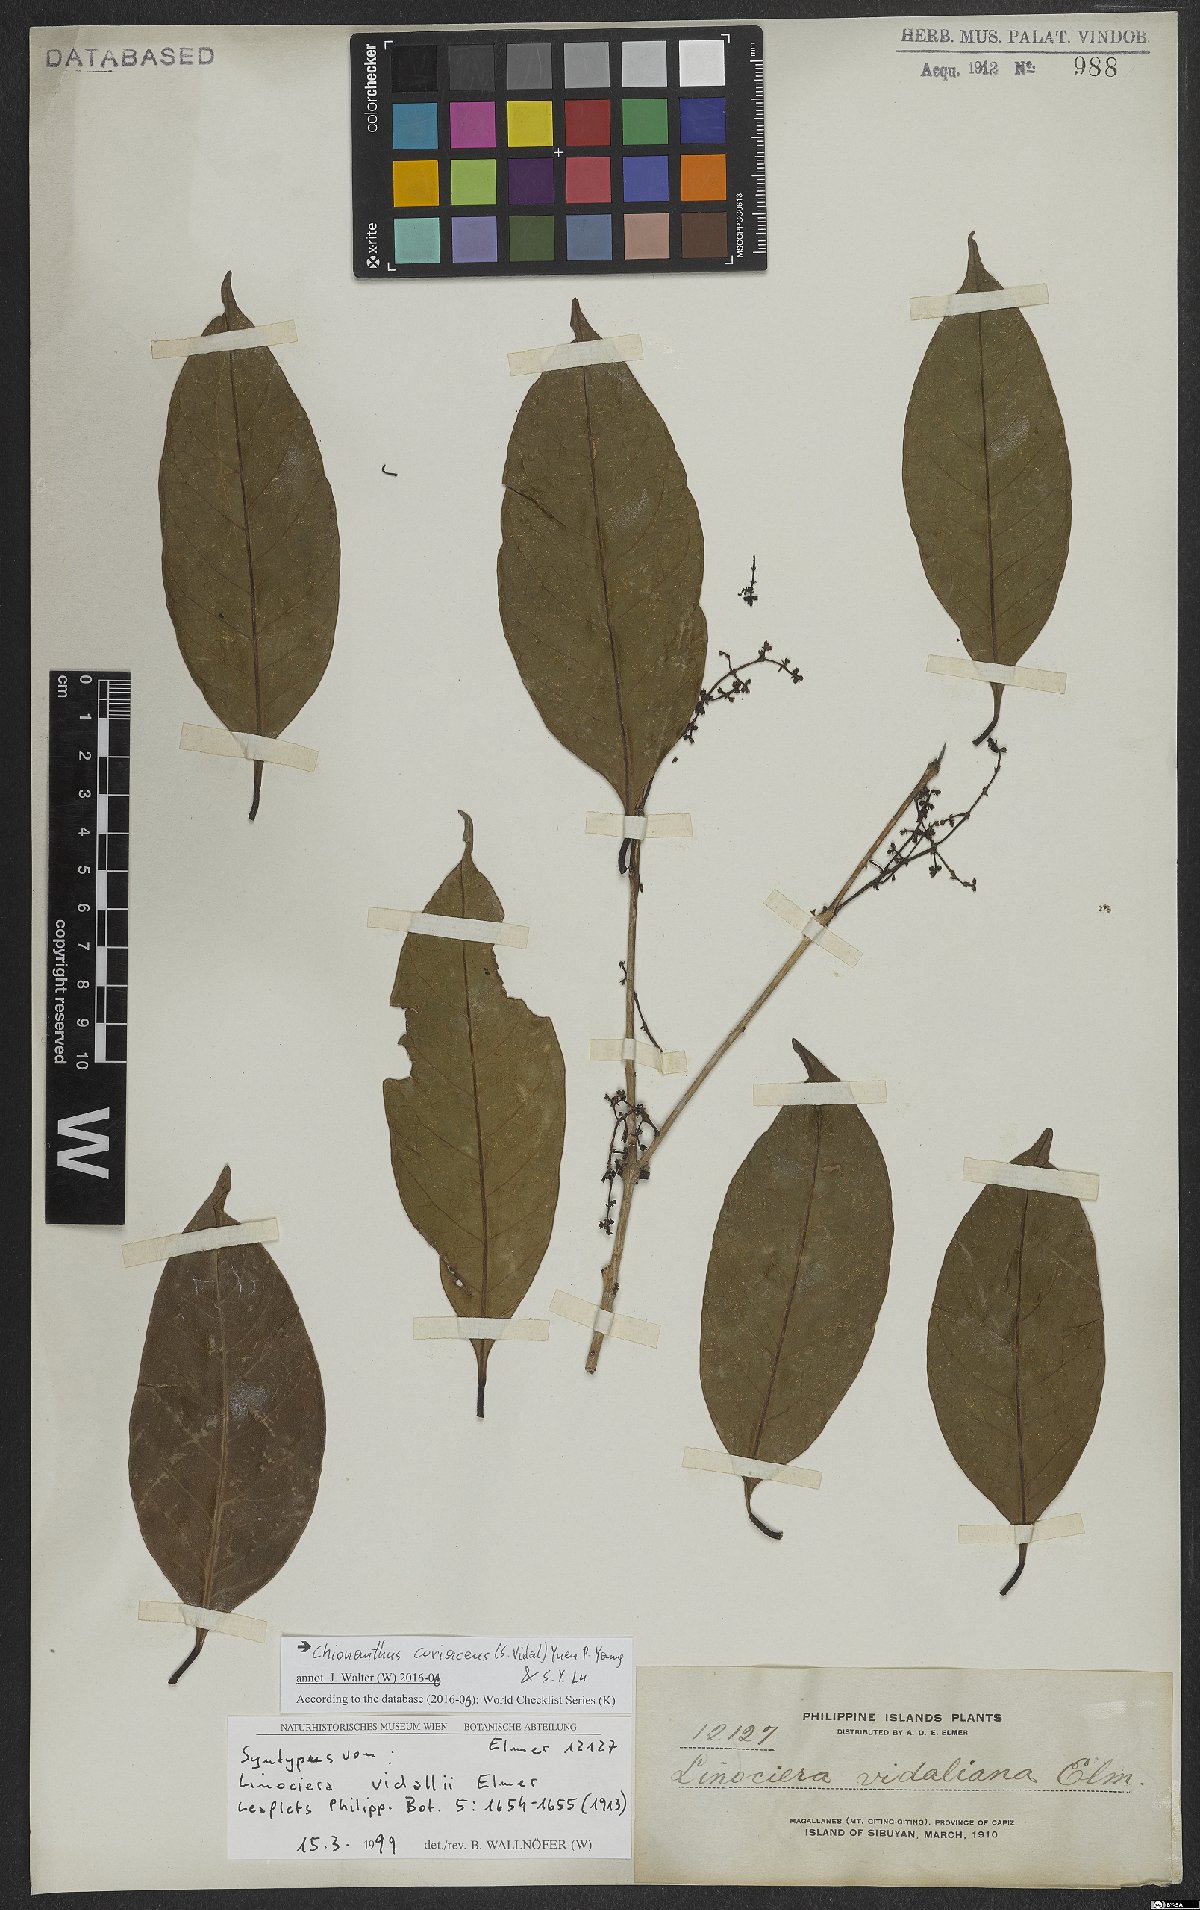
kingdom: Plantae
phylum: Tracheophyta
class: Magnoliopsida
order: Lamiales
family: Oleaceae
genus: Chionanthus
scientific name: Chionanthus coriaceus
